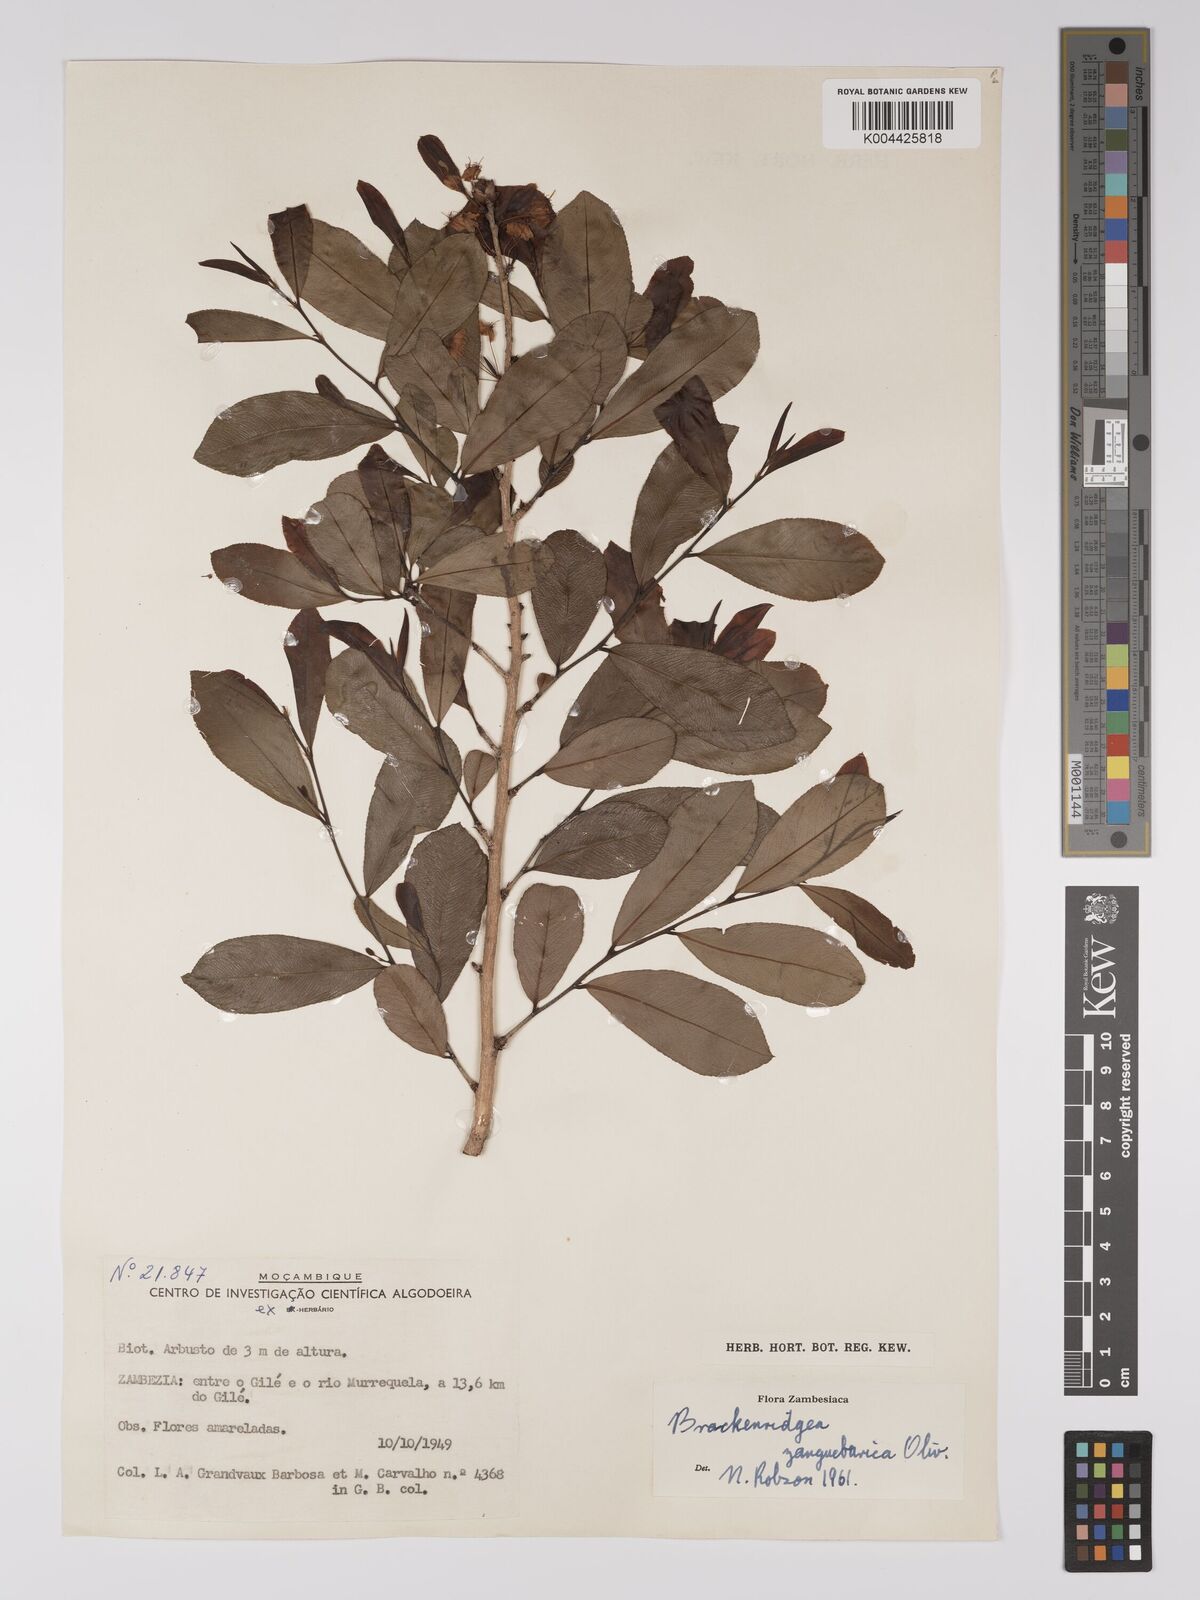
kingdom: Plantae
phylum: Tracheophyta
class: Magnoliopsida
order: Malpighiales
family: Ochnaceae
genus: Brackenridgea
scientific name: Brackenridgea zanguebarica
